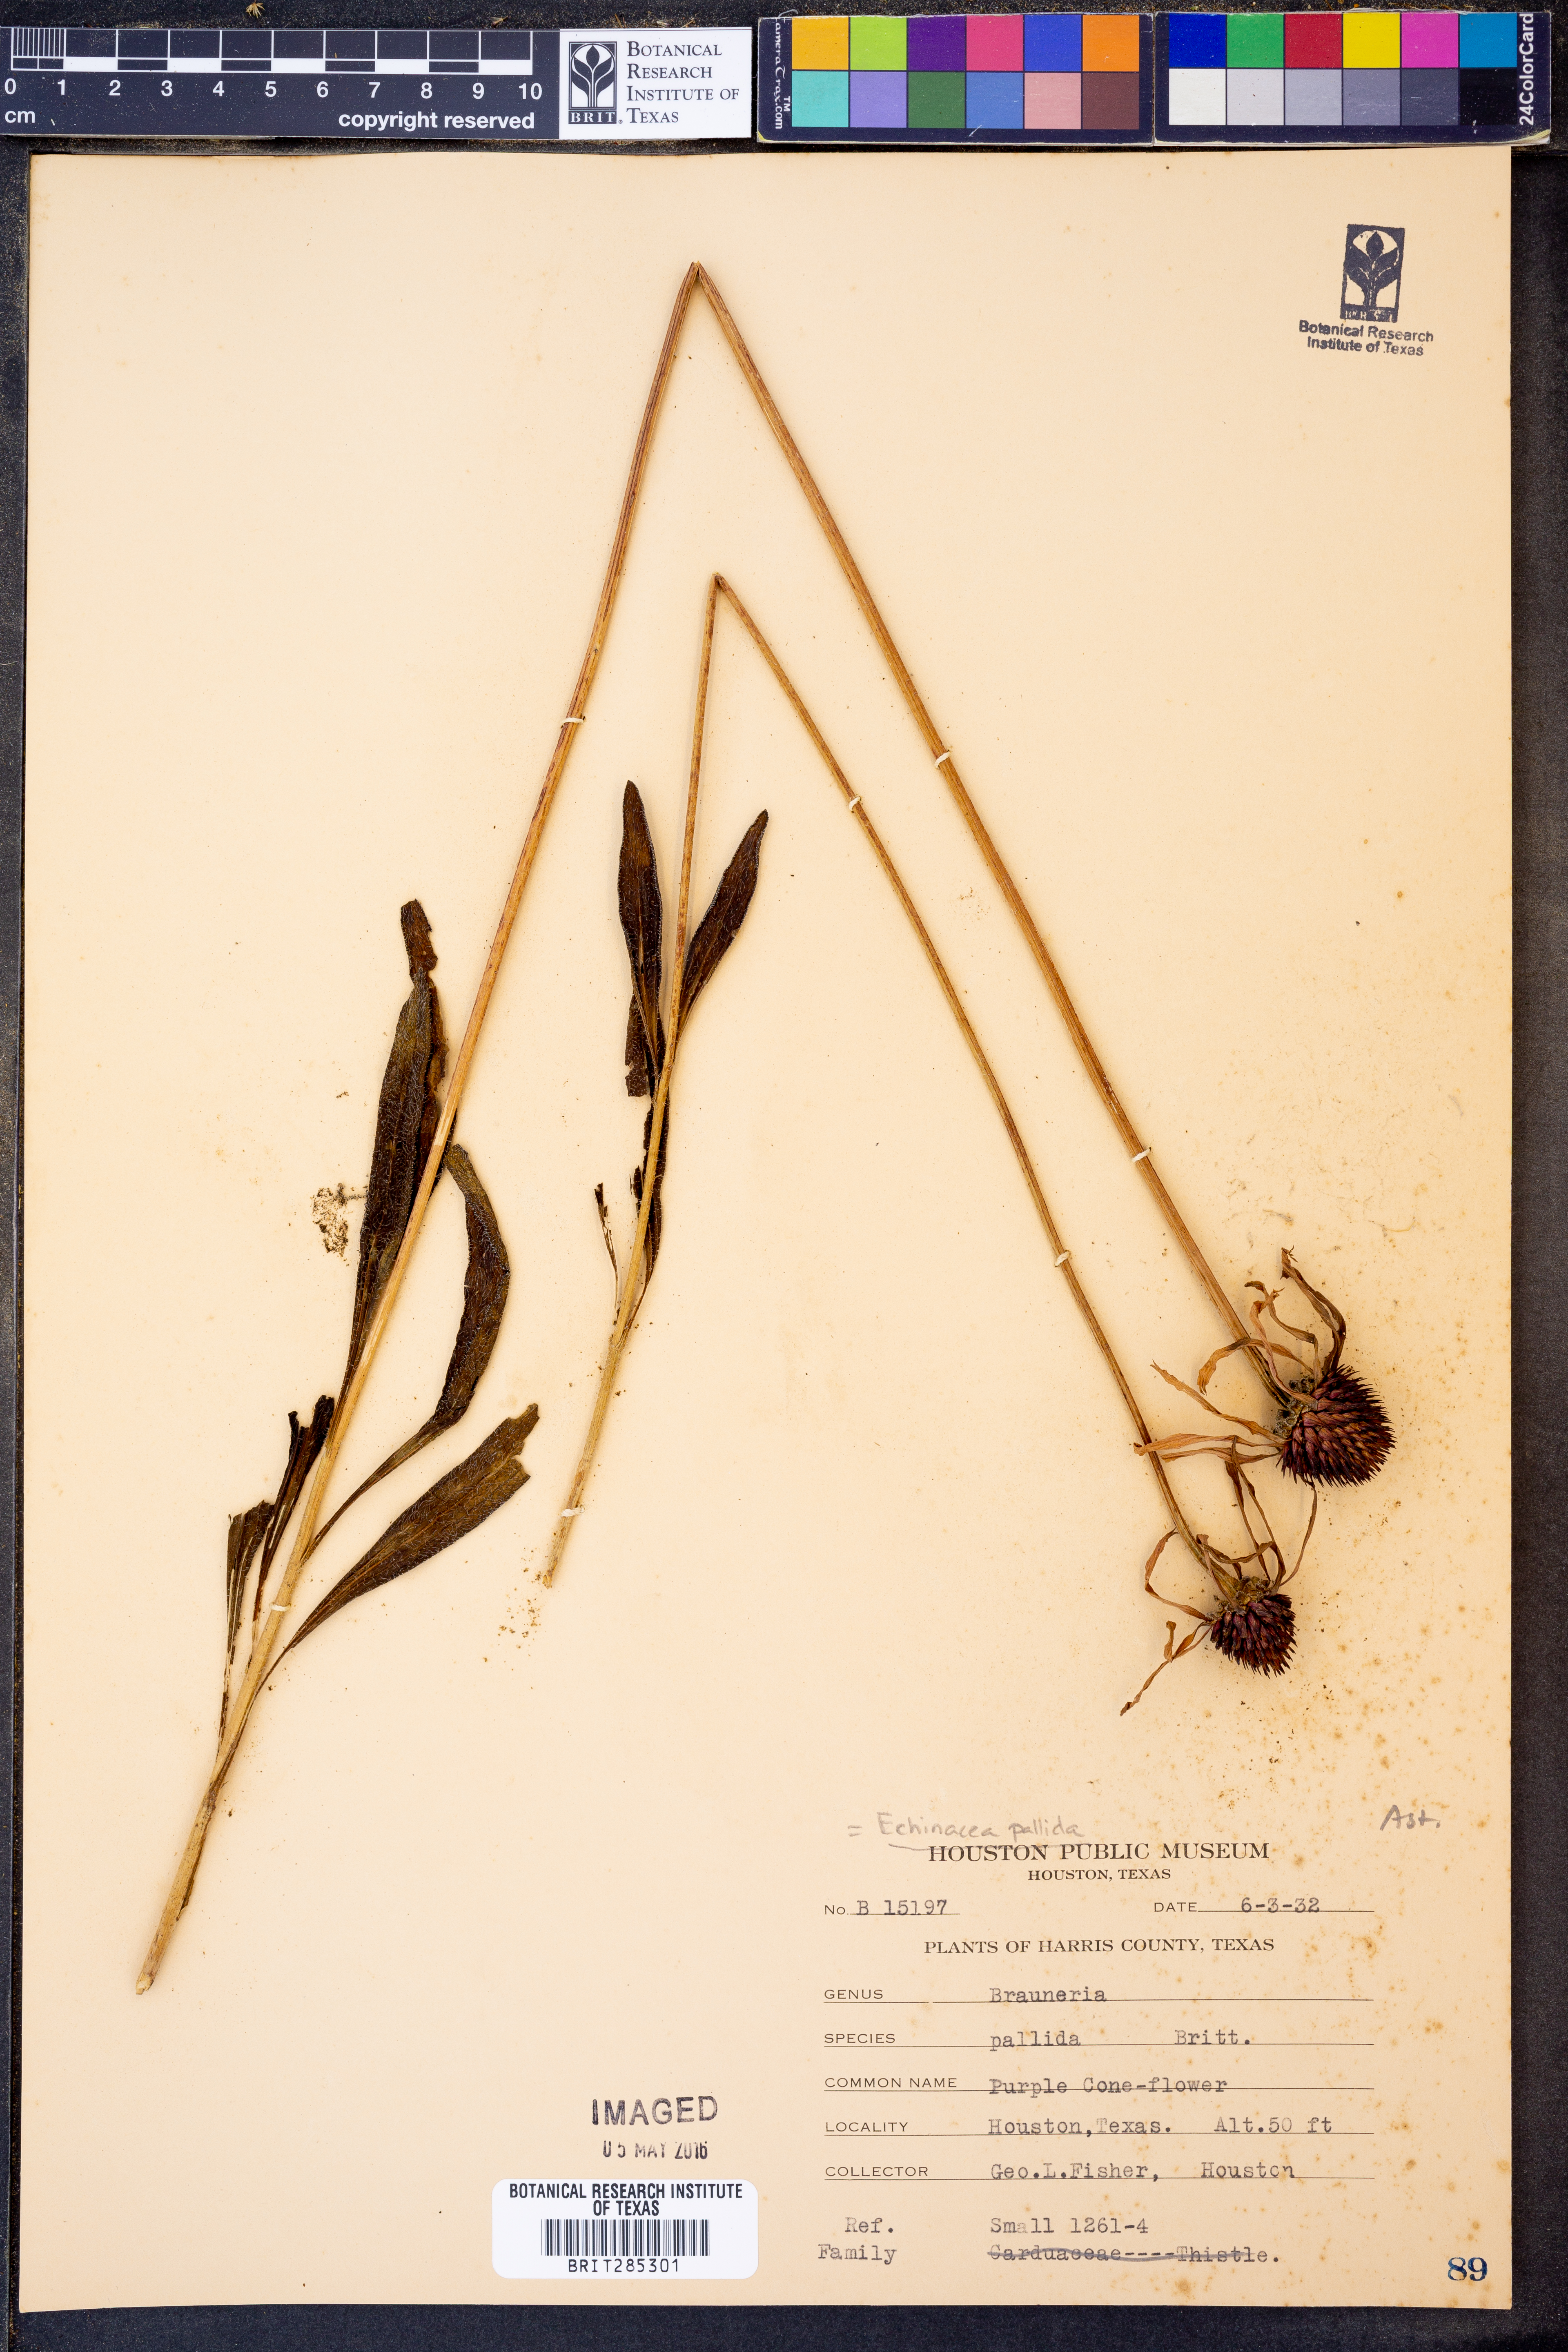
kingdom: Plantae
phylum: Tracheophyta
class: Magnoliopsida
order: Asterales
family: Asteraceae
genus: Echinacea
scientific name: Echinacea pallida
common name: Pale echinacea
